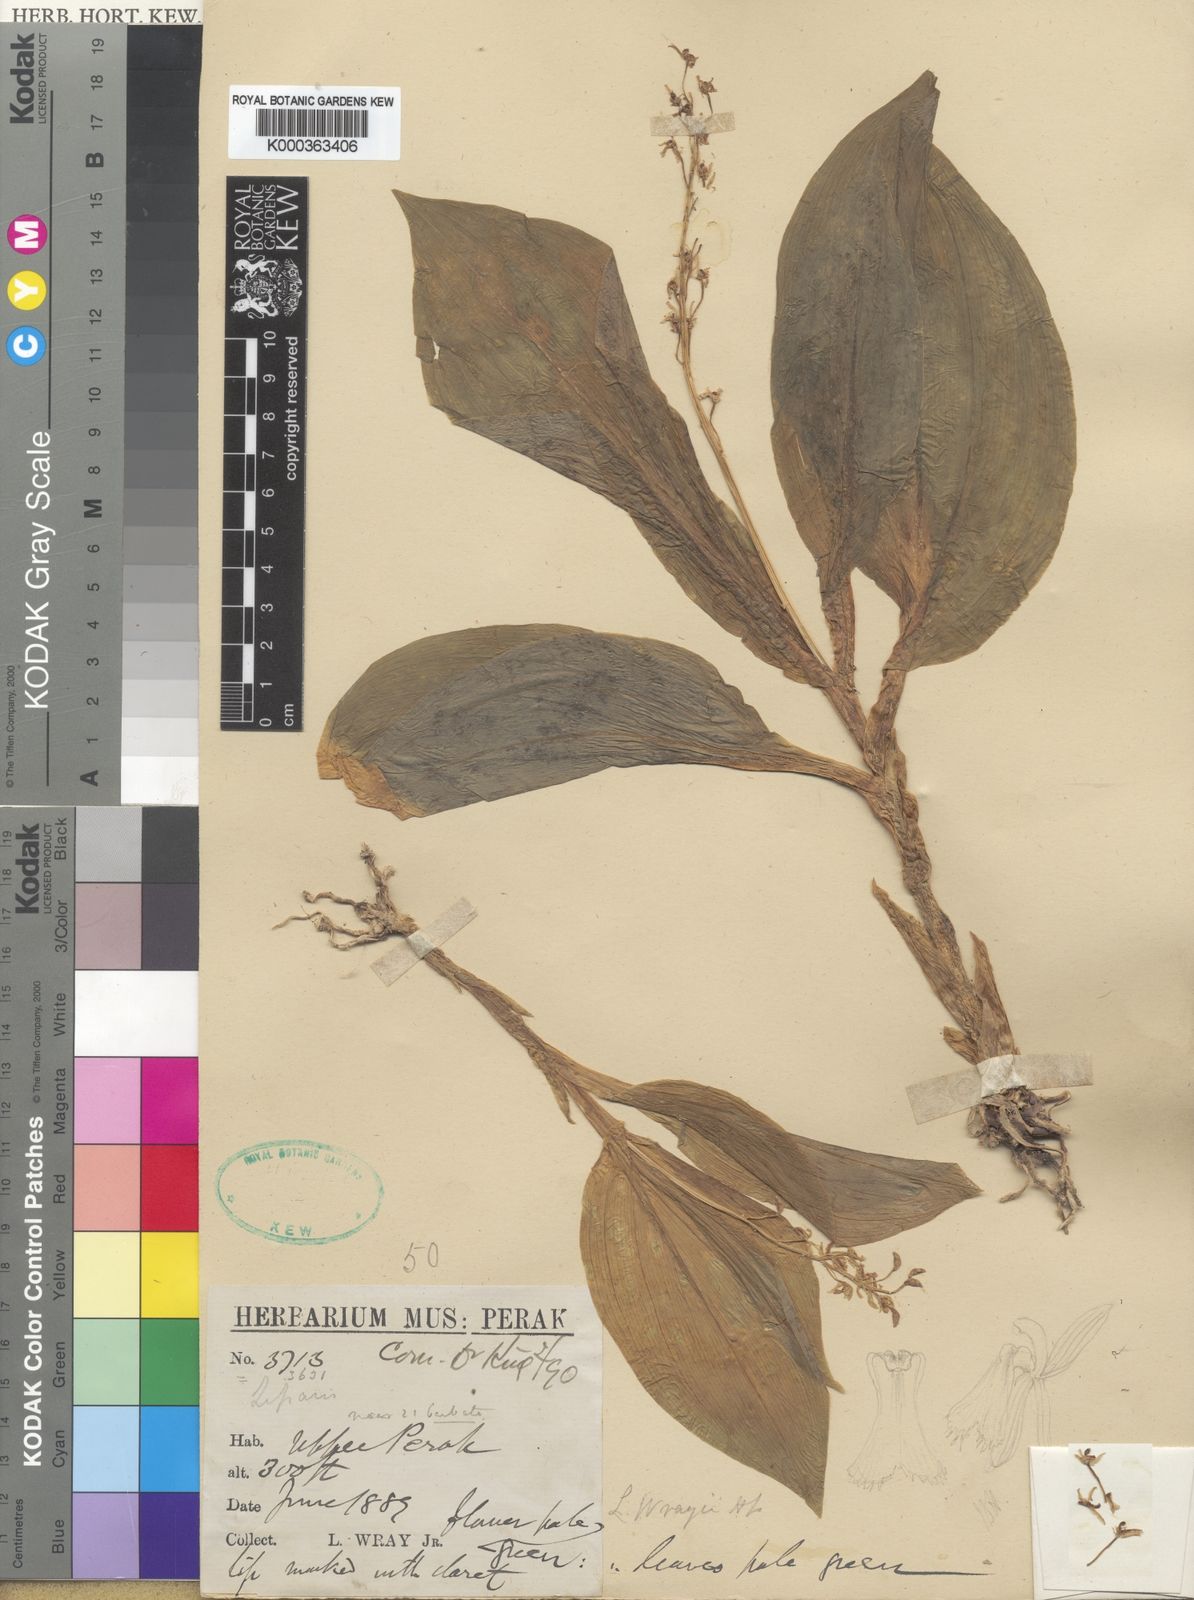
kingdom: Plantae
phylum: Tracheophyta
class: Liliopsida
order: Asparagales
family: Orchidaceae
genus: Liparis
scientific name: Liparis barbata
